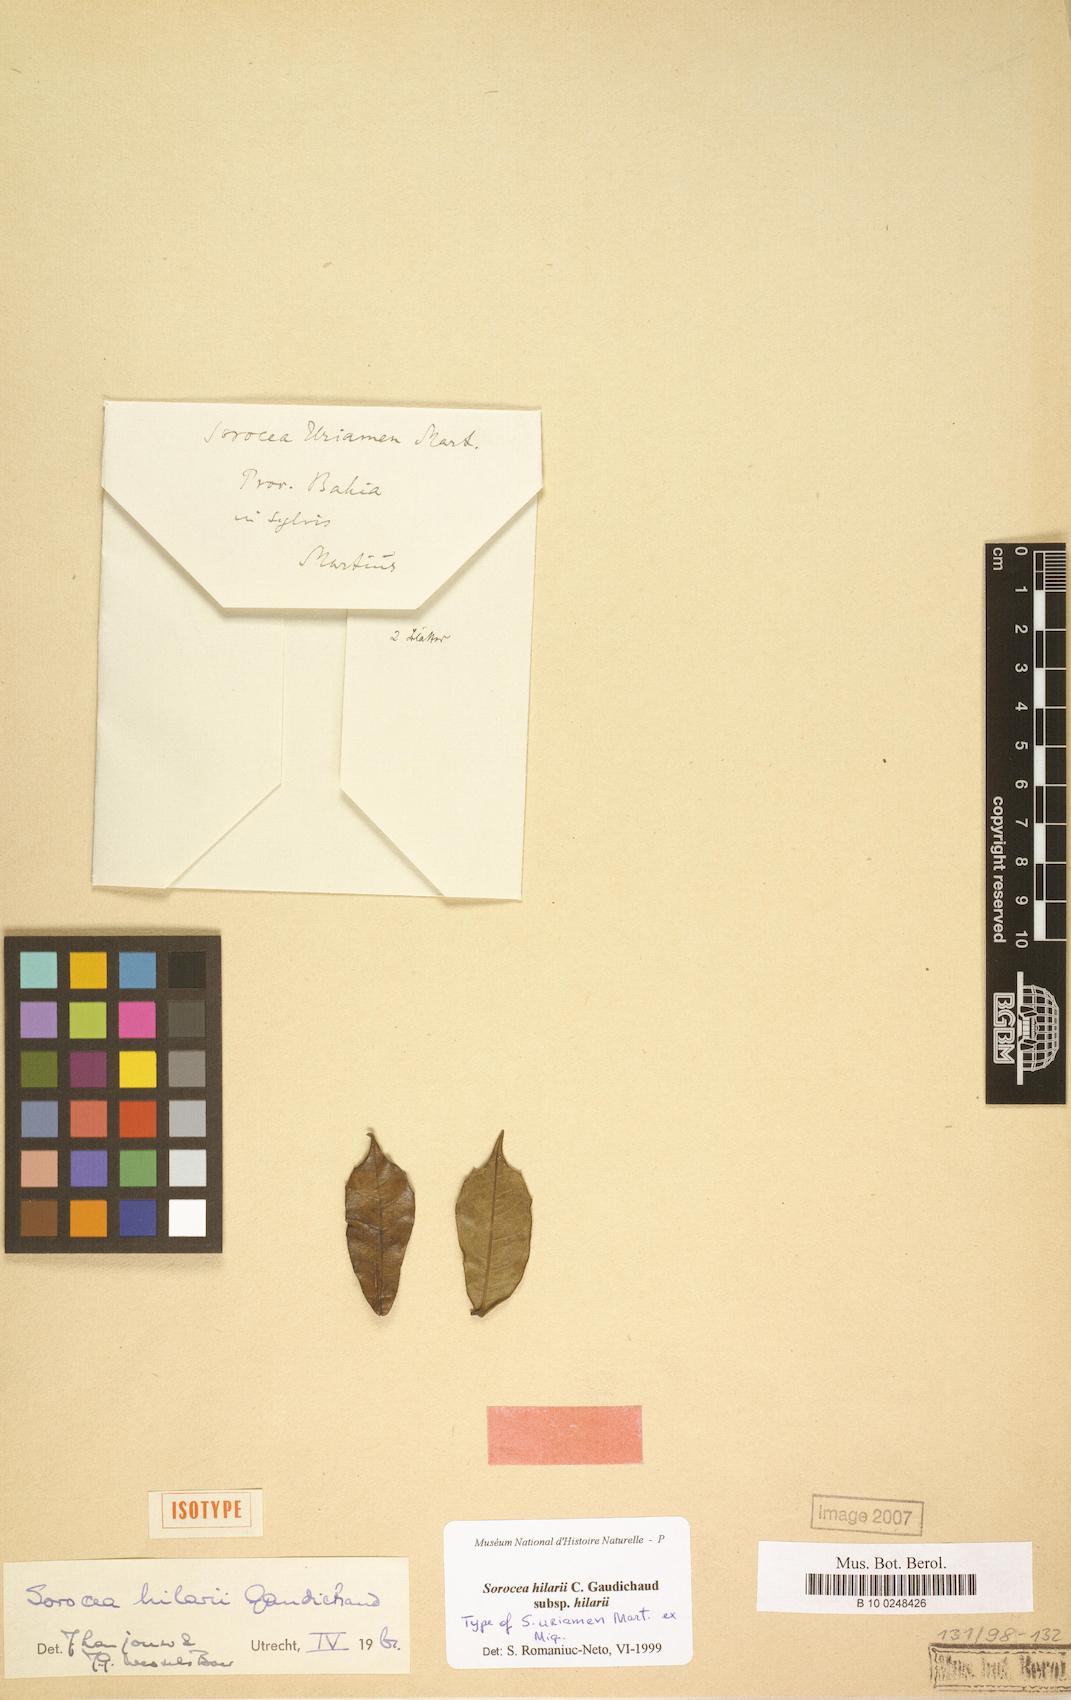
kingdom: Plantae
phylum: Tracheophyta
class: Magnoliopsida
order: Rosales
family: Moraceae
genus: Sorocea
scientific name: Sorocea hilarii
